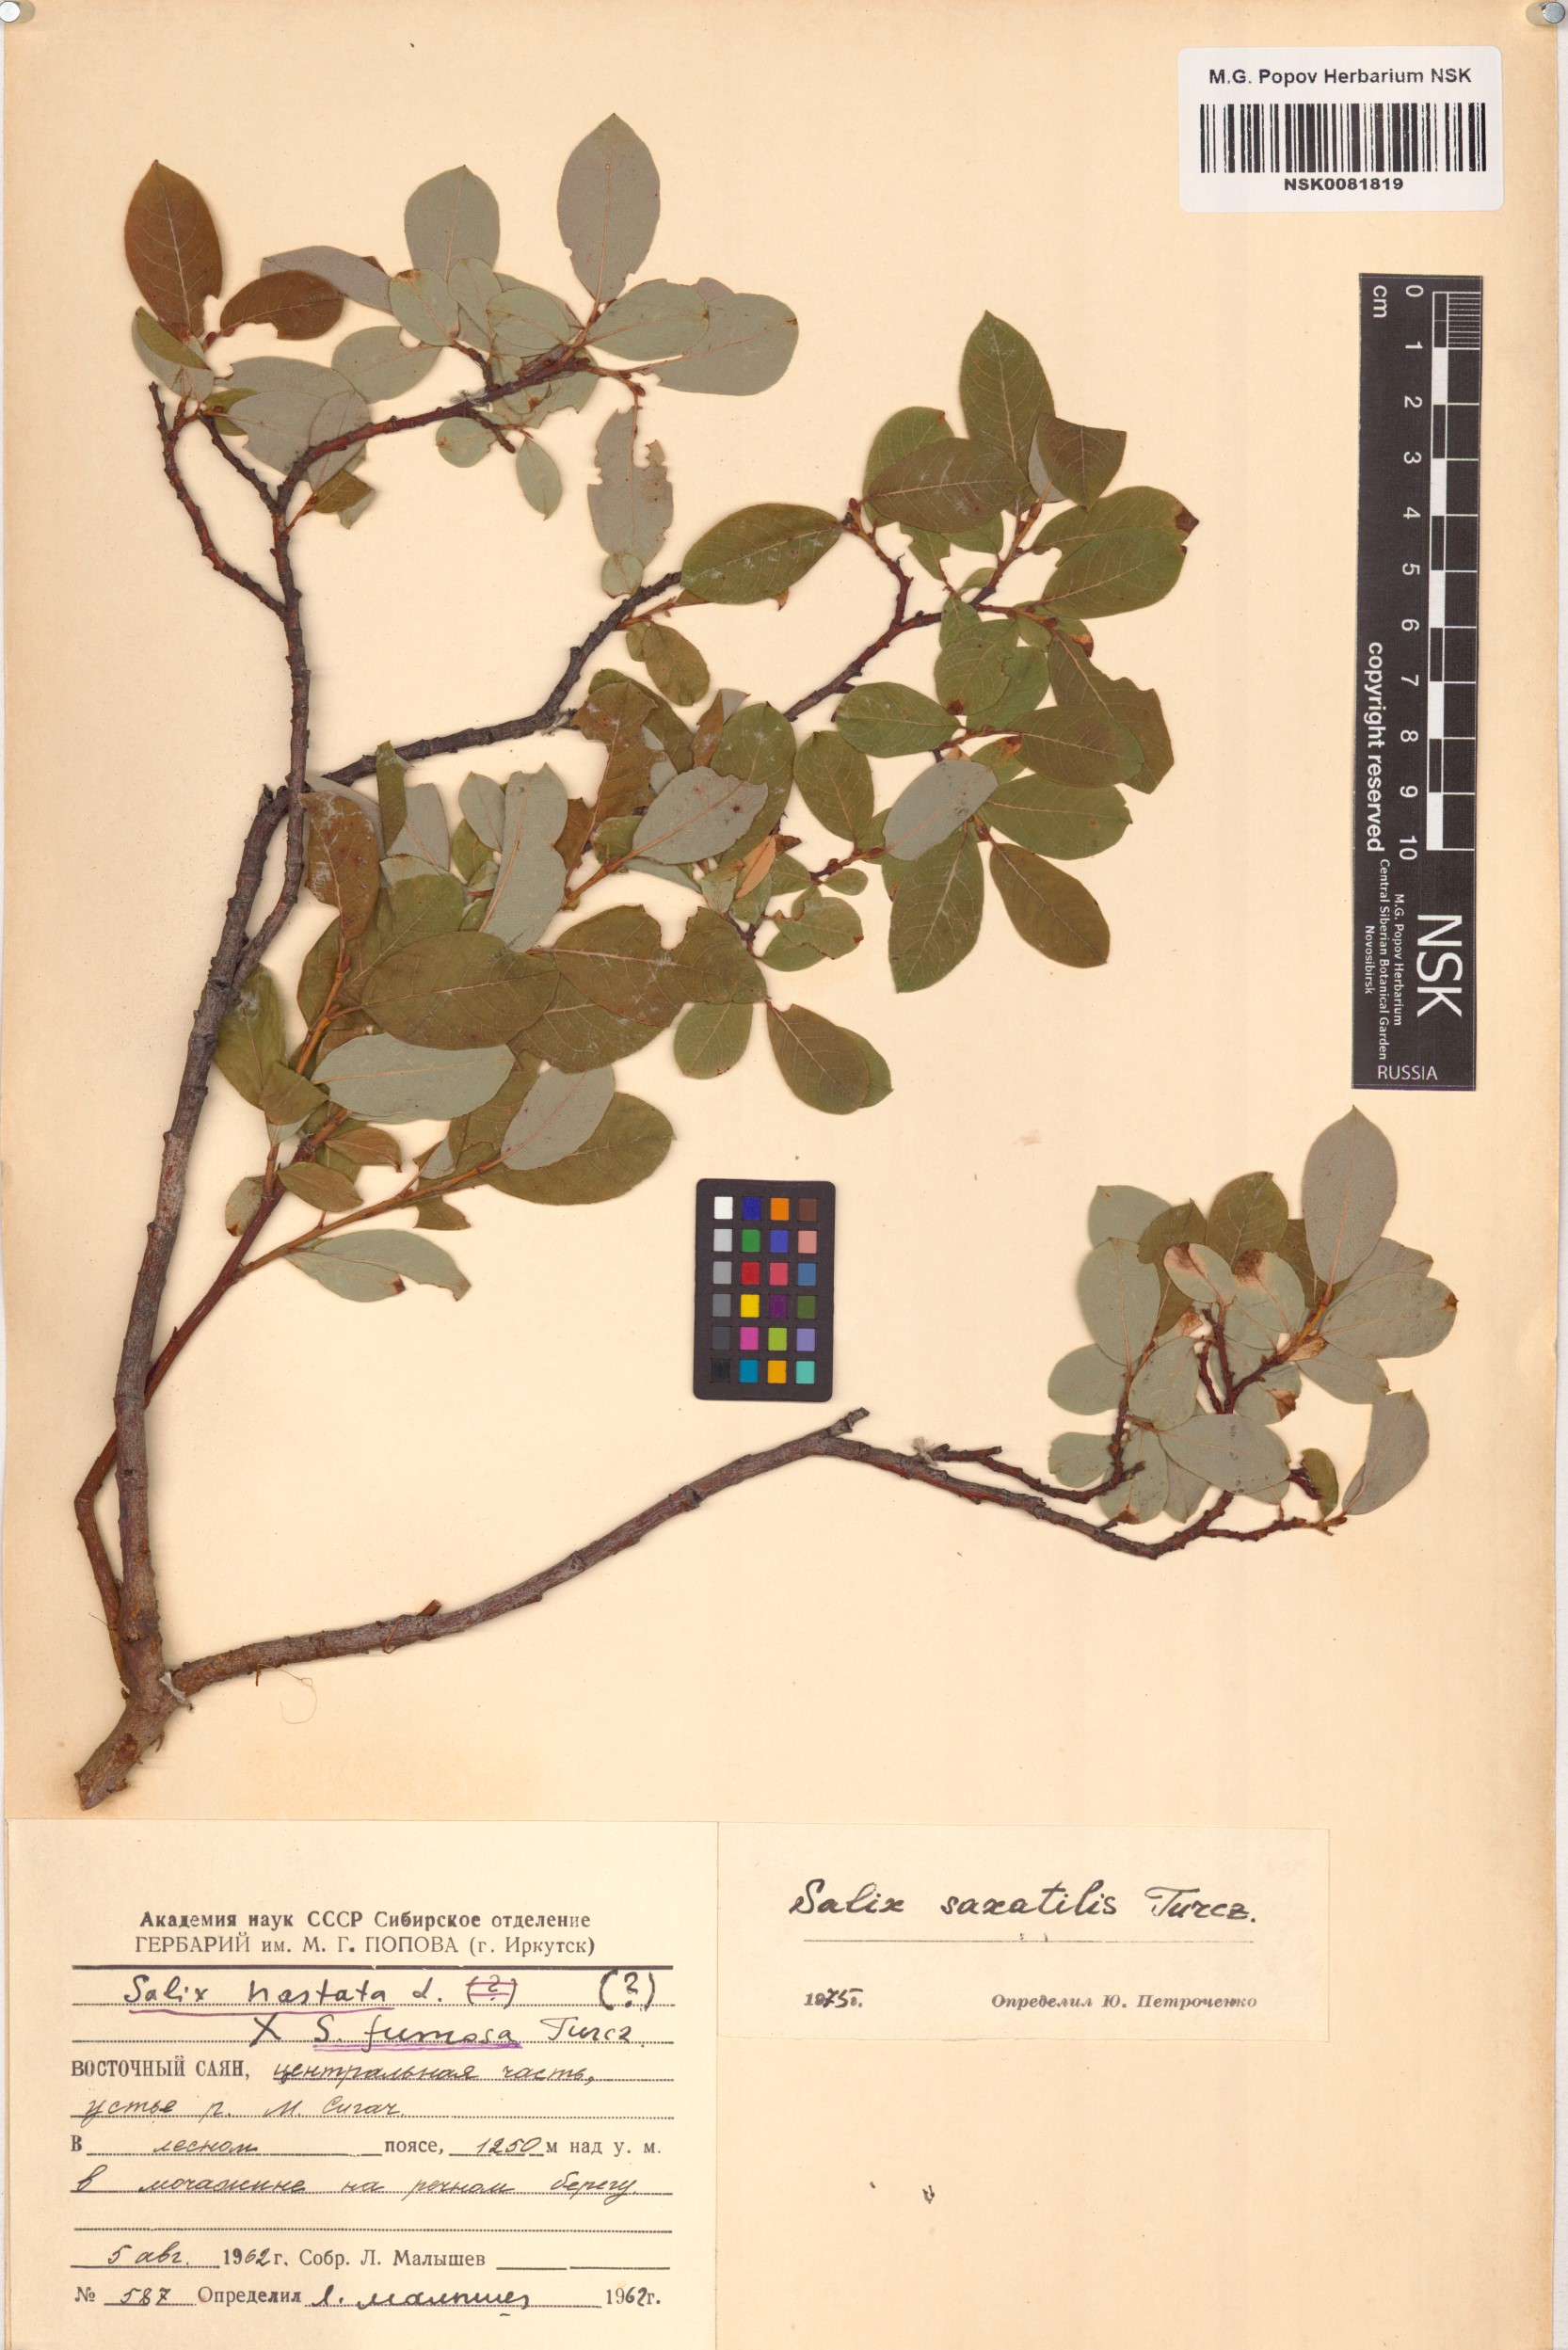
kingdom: Plantae
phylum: Tracheophyta
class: Magnoliopsida
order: Malpighiales
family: Salicaceae
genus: Salix
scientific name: Salix saxatilis
